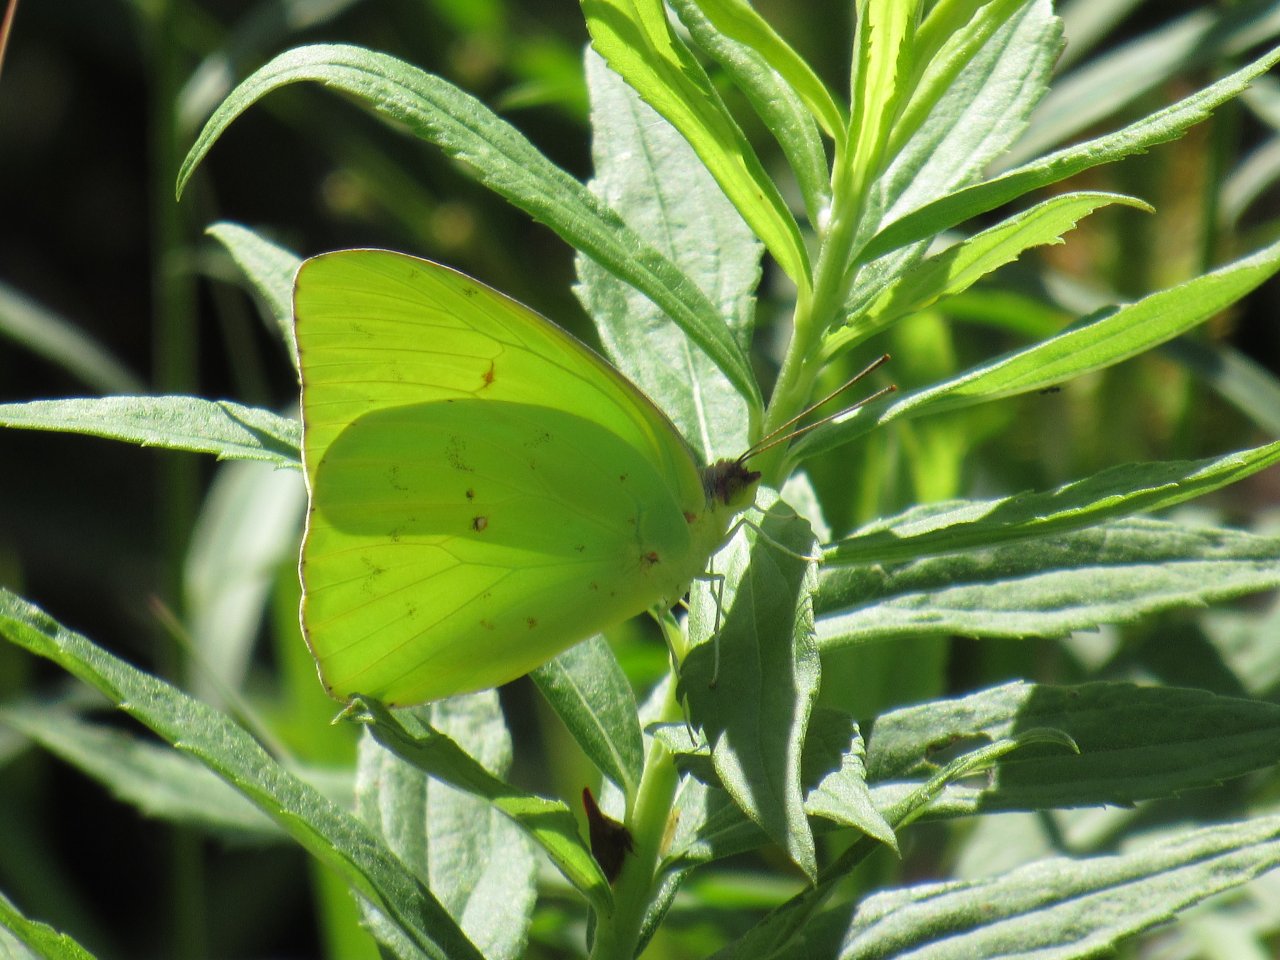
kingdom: Animalia
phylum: Arthropoda
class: Insecta
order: Lepidoptera
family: Pieridae
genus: Phoebis
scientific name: Phoebis sennae
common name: Cloudless Sulphur
